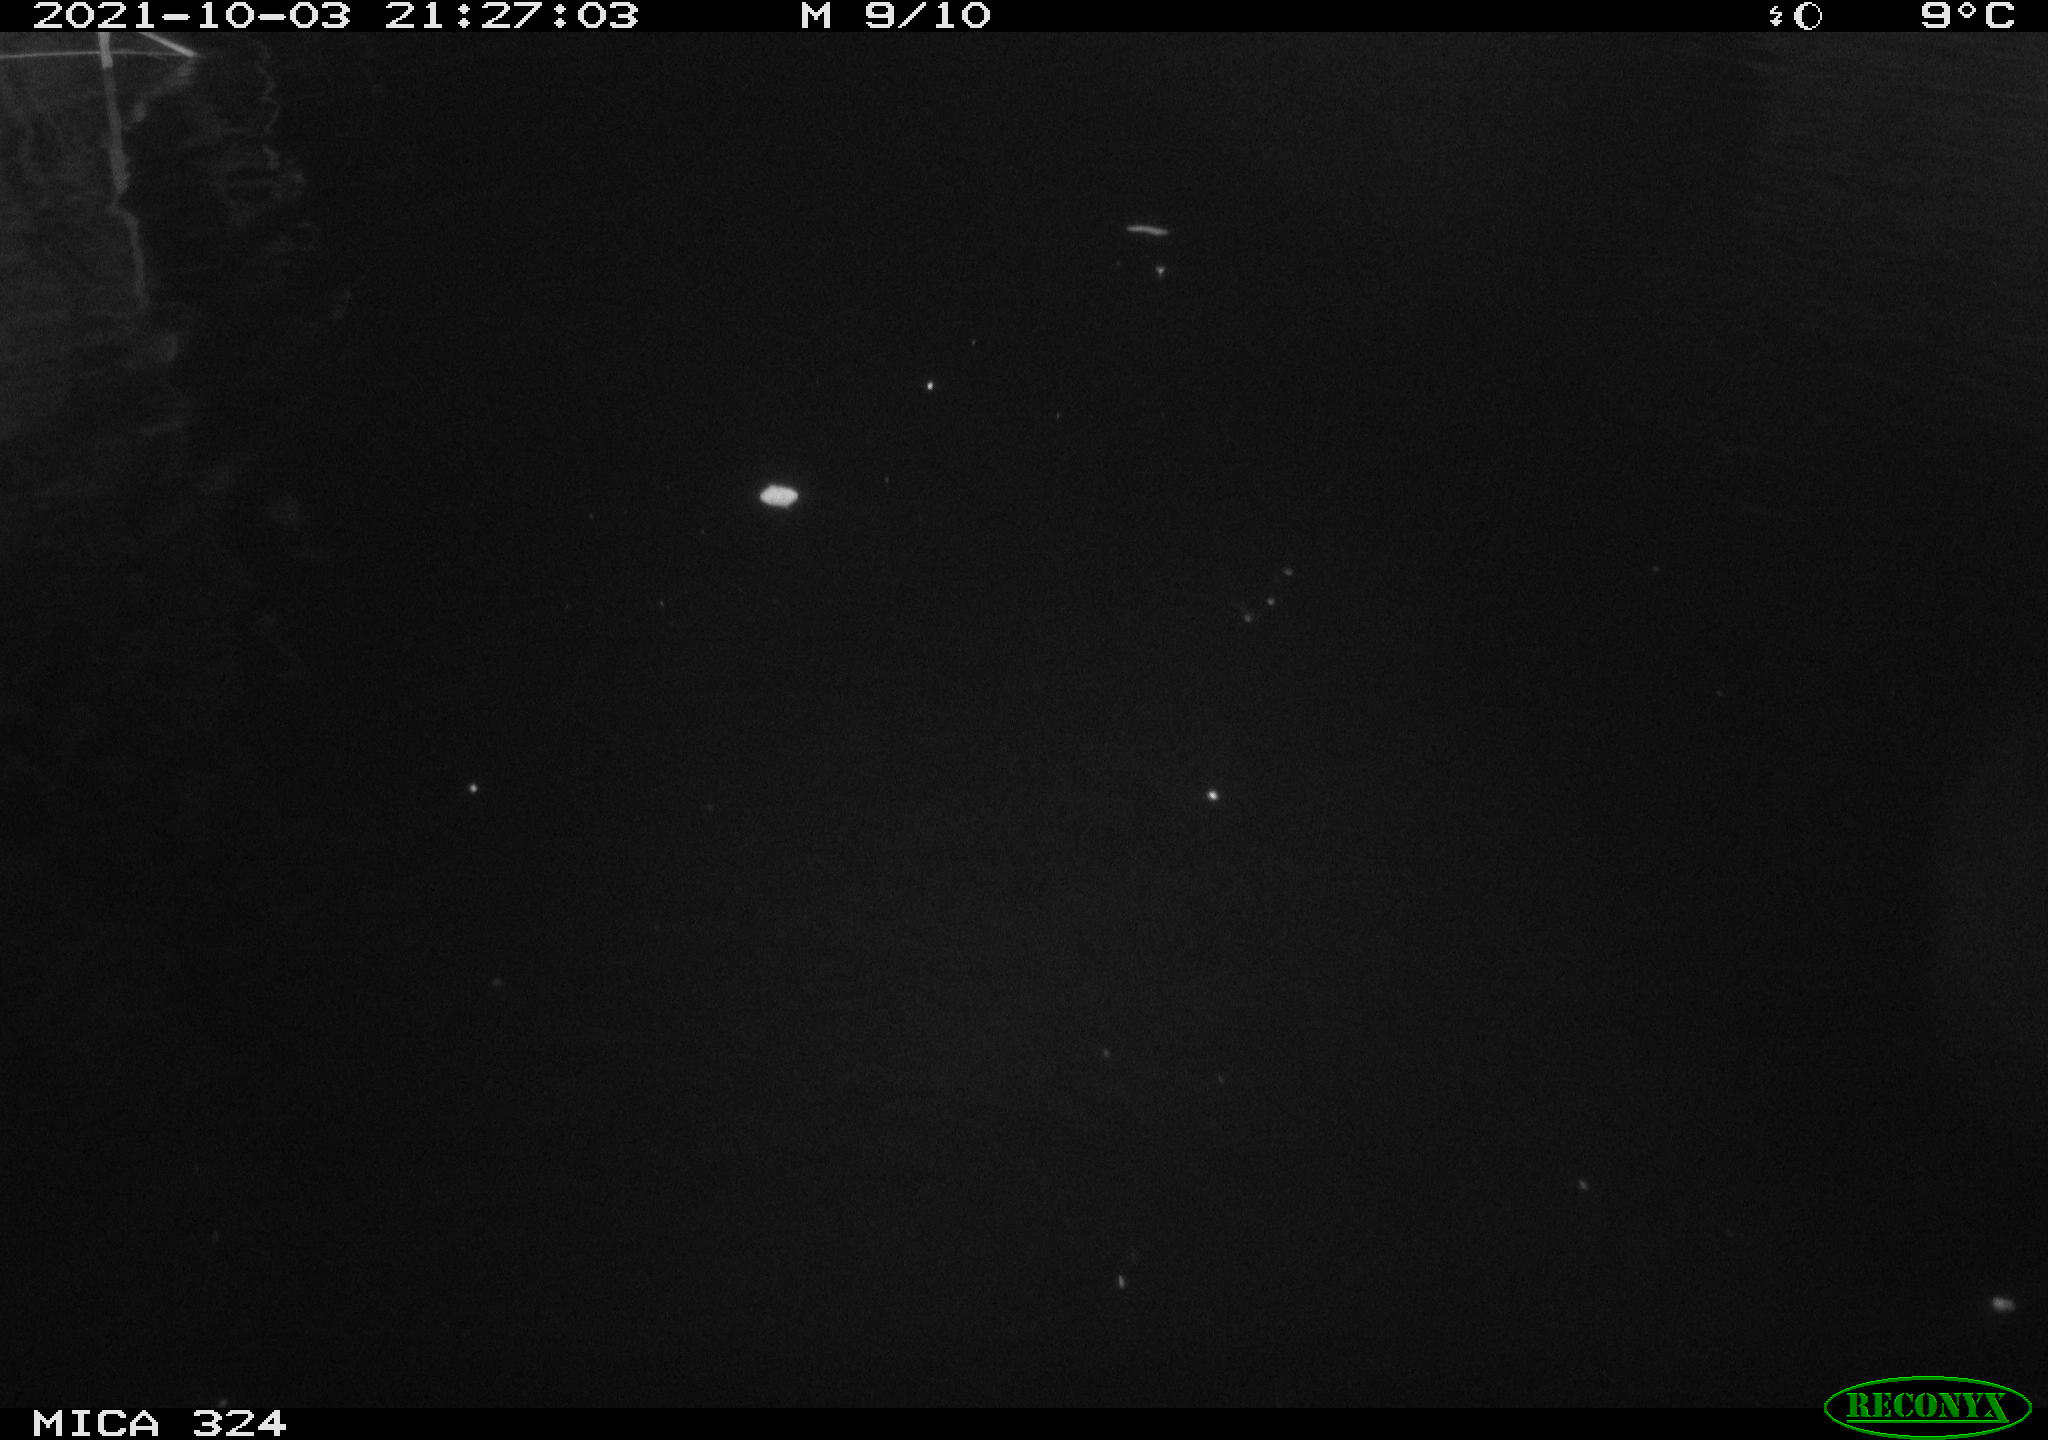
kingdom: Animalia
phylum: Chordata
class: Mammalia
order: Rodentia
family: Cricetidae
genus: Ondatra
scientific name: Ondatra zibethicus
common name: Muskrat
